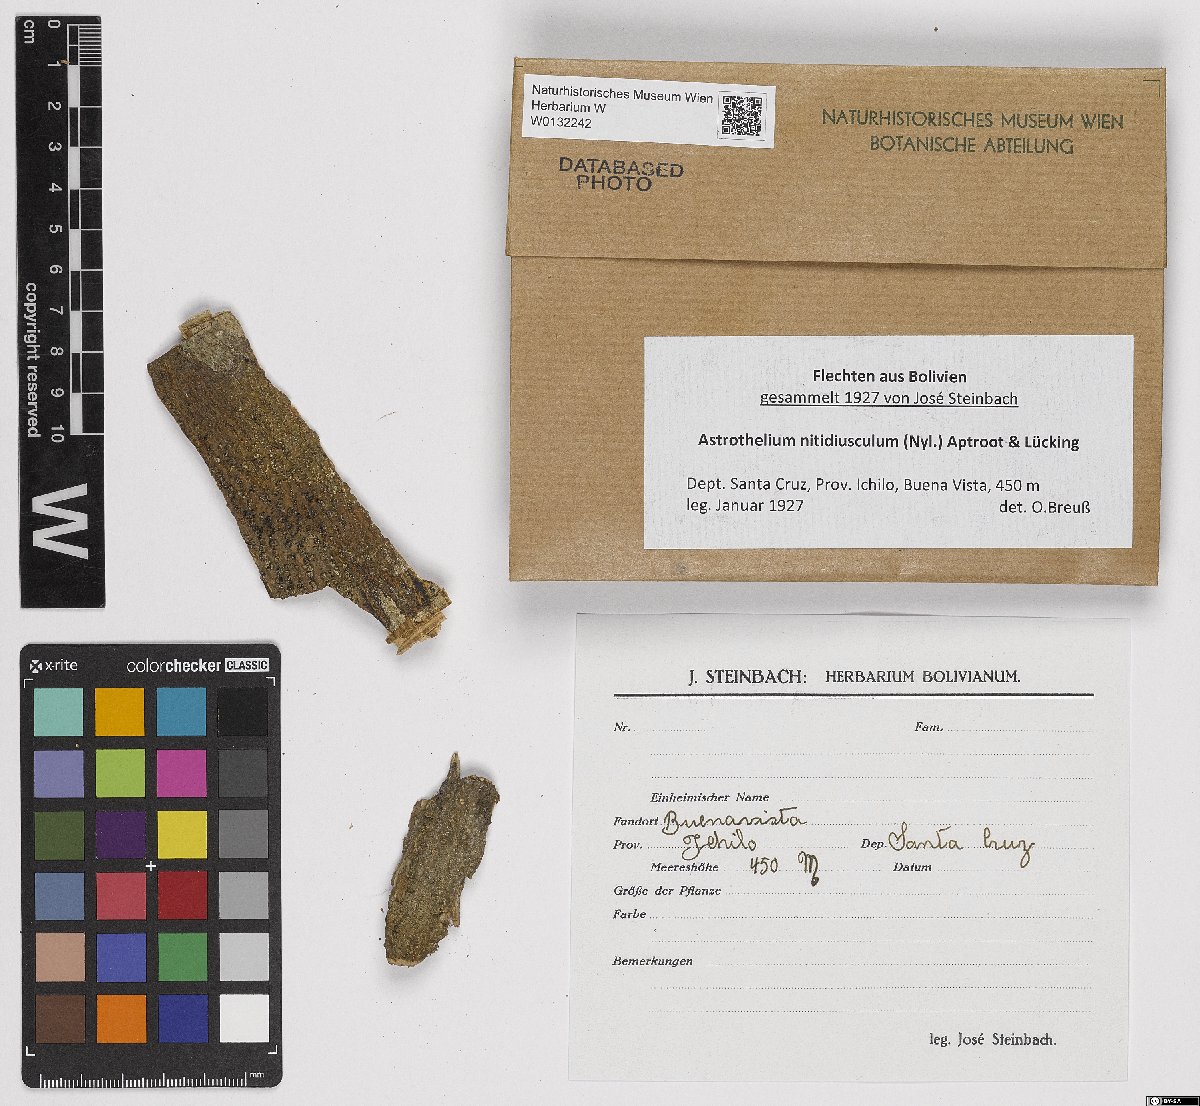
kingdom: Fungi
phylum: Ascomycota
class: Dothideomycetes
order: Trypetheliales
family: Trypetheliaceae
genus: Astrothelium
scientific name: Astrothelium nitidiusculum
